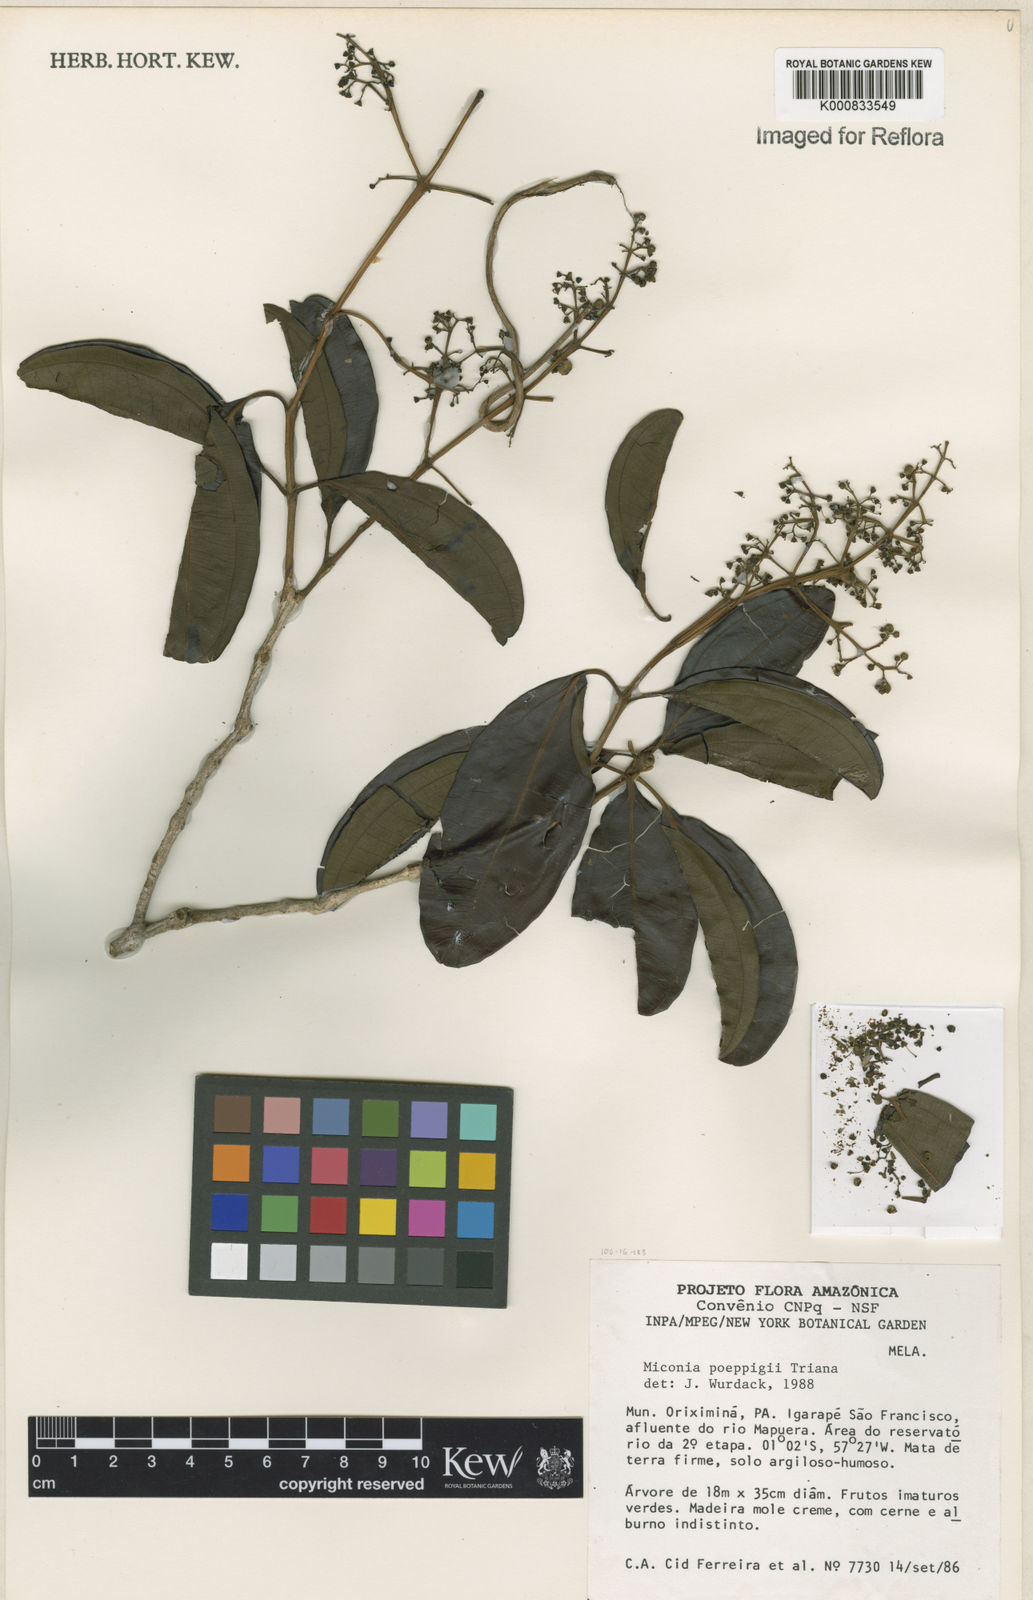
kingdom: Plantae
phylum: Tracheophyta
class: Magnoliopsida
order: Myrtales
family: Melastomataceae
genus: Miconia
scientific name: Miconia poeppigii
